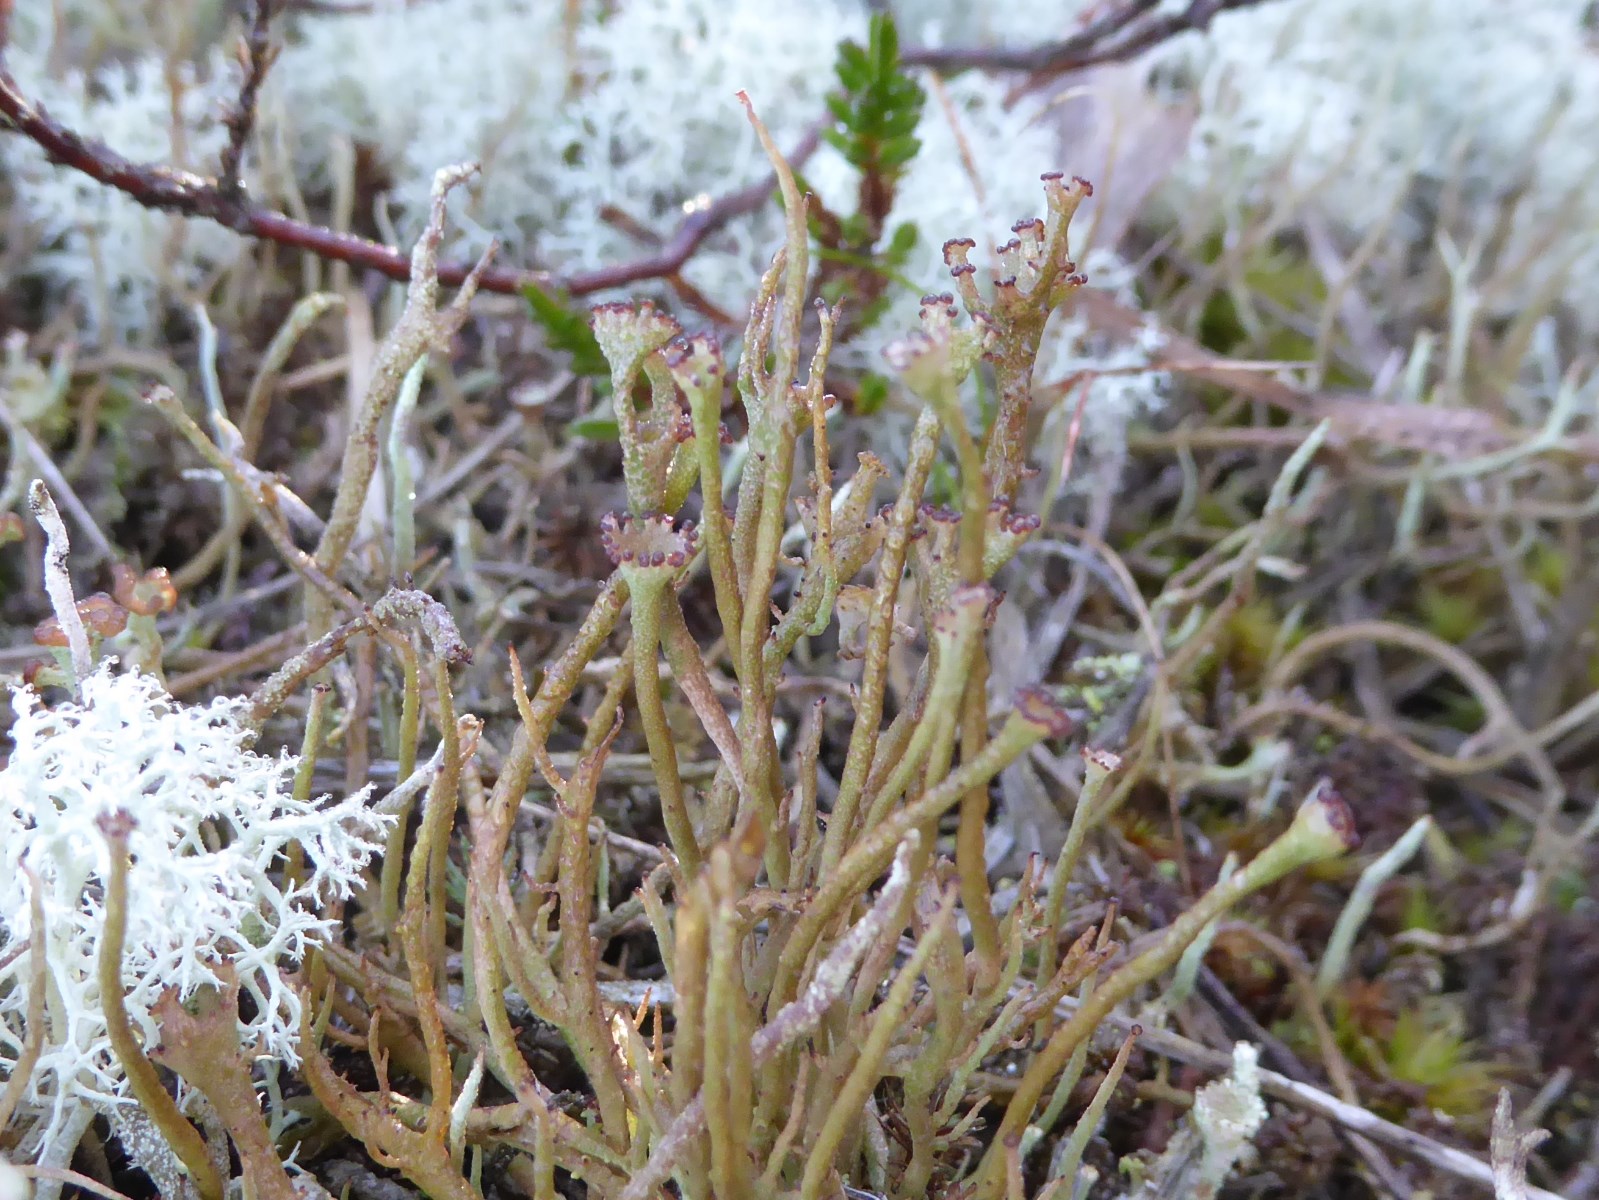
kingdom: Fungi
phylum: Ascomycota
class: Lecanoromycetes
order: Lecanorales
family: Cladoniaceae
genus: Cladonia
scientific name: Cladonia gracilis
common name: slank bægerlav
